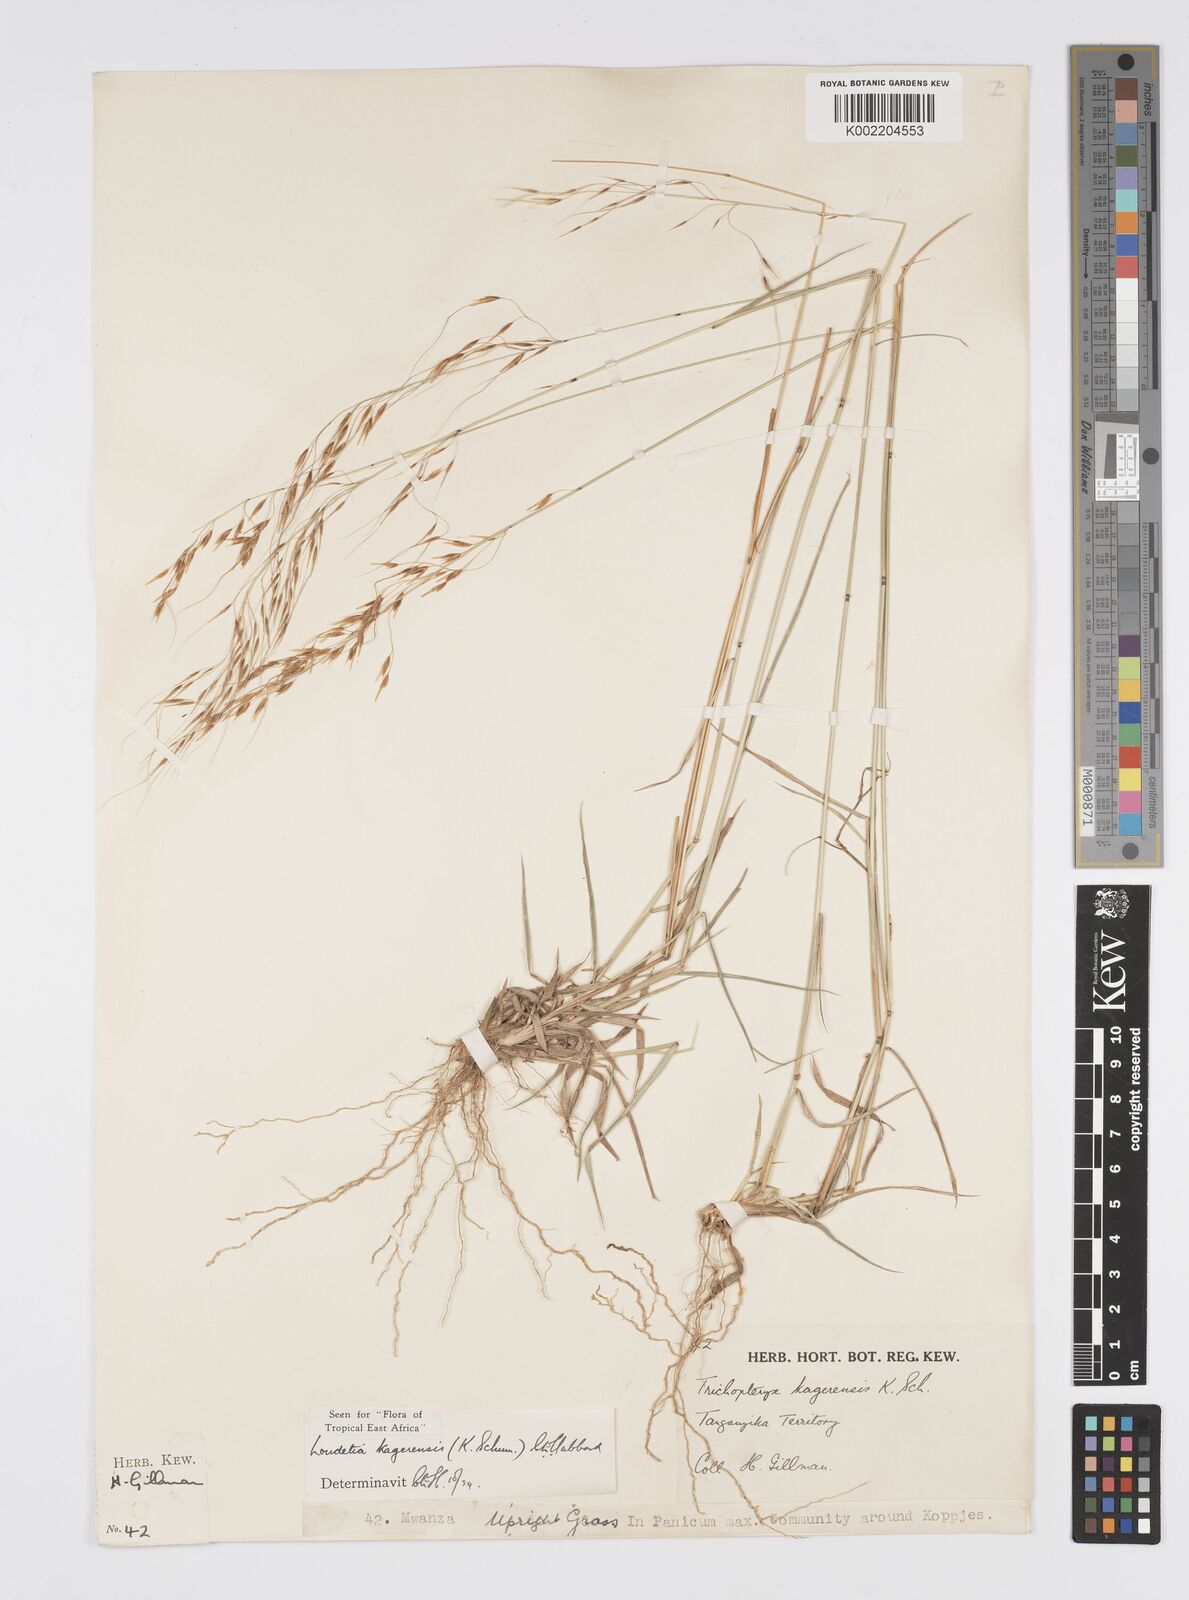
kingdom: Plantae
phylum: Tracheophyta
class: Liliopsida
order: Poales
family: Poaceae
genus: Loudetia
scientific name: Loudetia kagerensis
